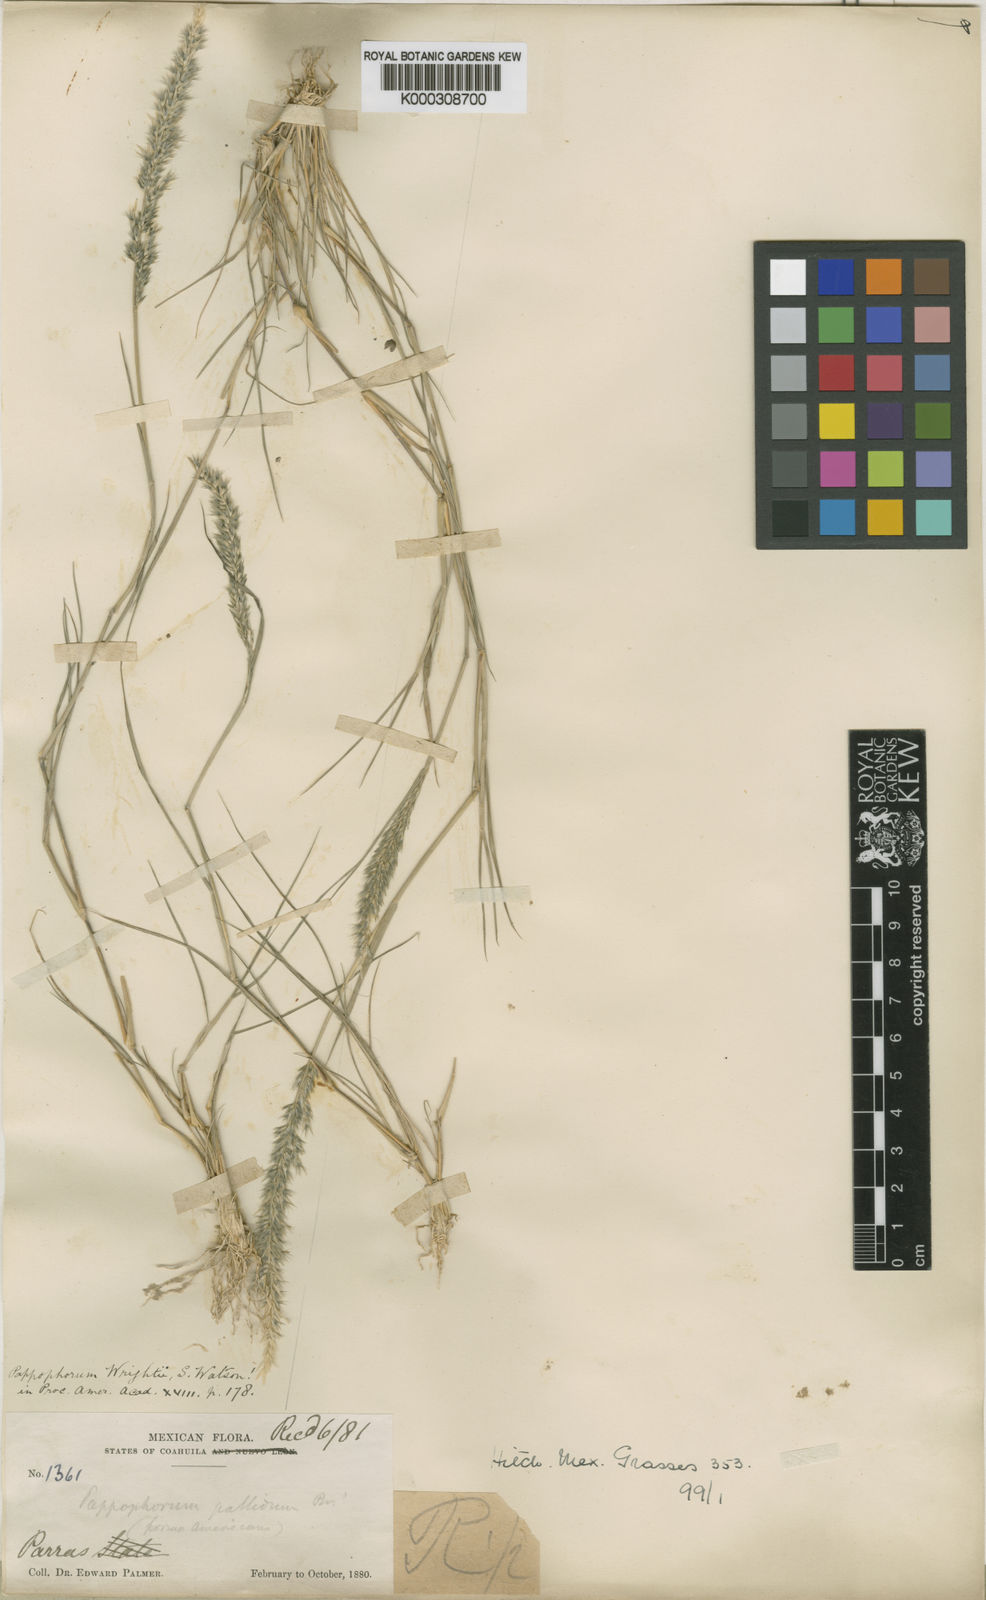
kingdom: Plantae
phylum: Tracheophyta
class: Liliopsida
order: Poales
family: Poaceae
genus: Enneapogon
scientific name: Enneapogon desvauxii
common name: Feather pappus grass
